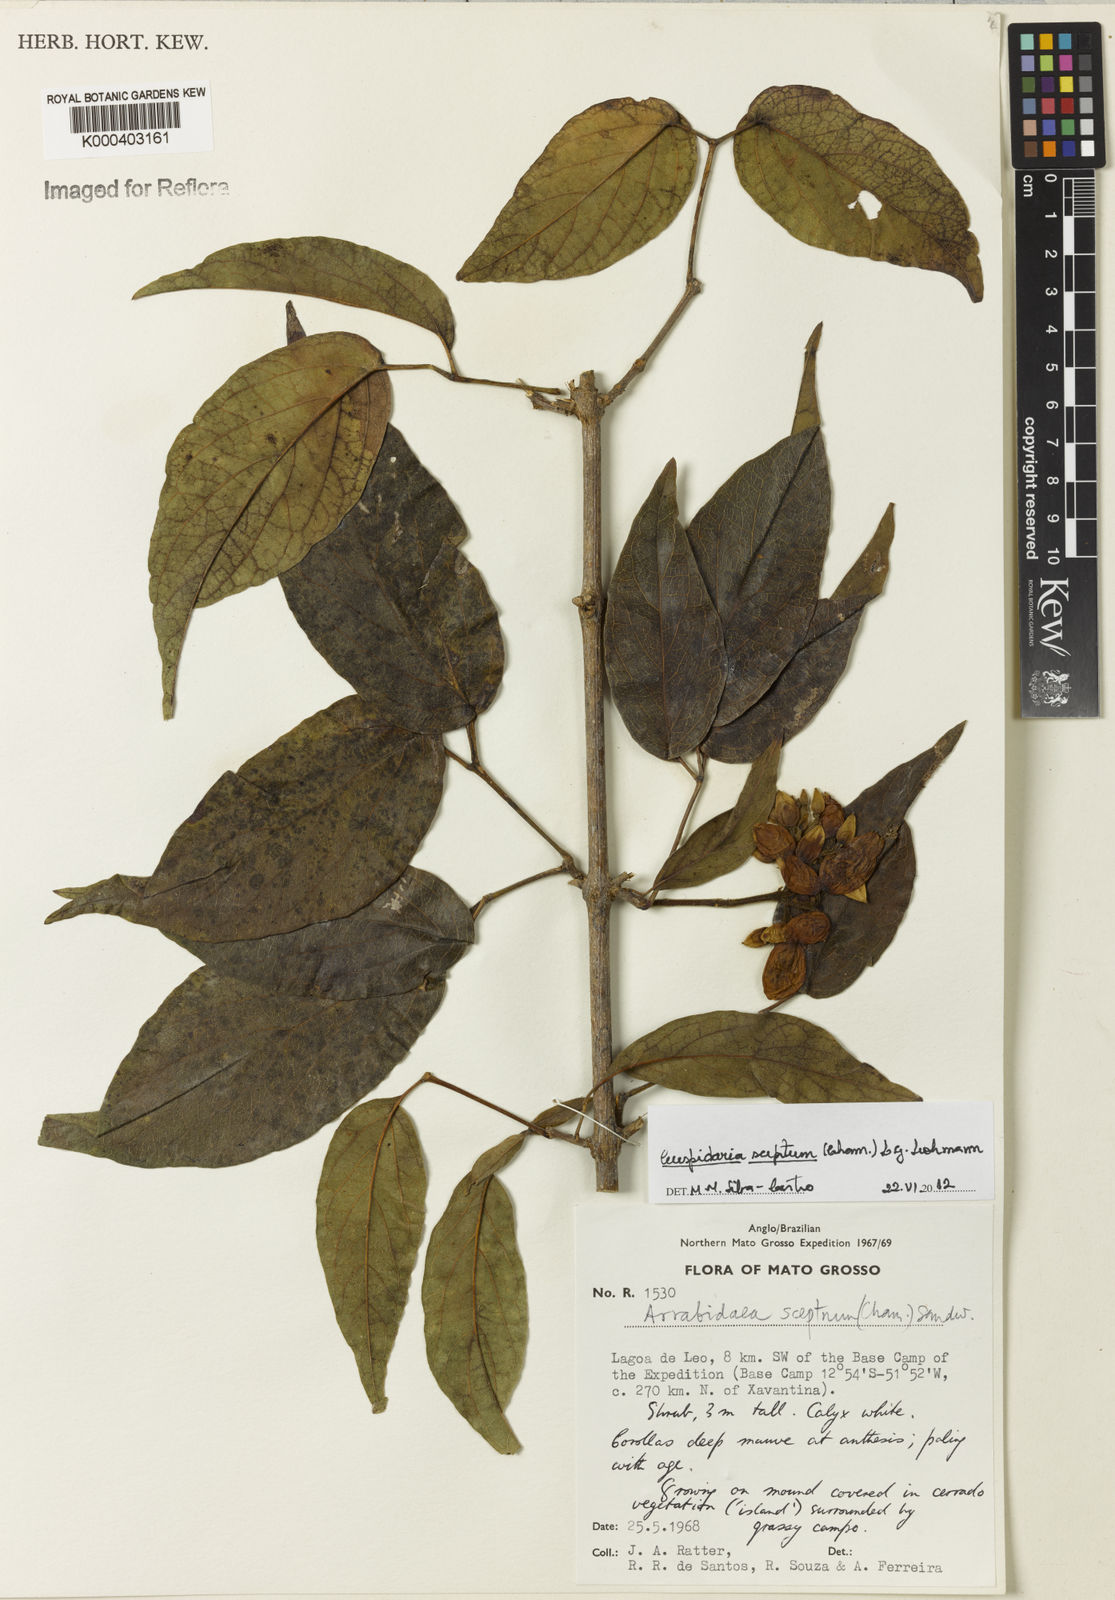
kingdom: Plantae
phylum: Tracheophyta
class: Magnoliopsida
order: Lamiales
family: Bignoniaceae
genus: Cuspidaria
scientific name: Cuspidaria sceptrum
